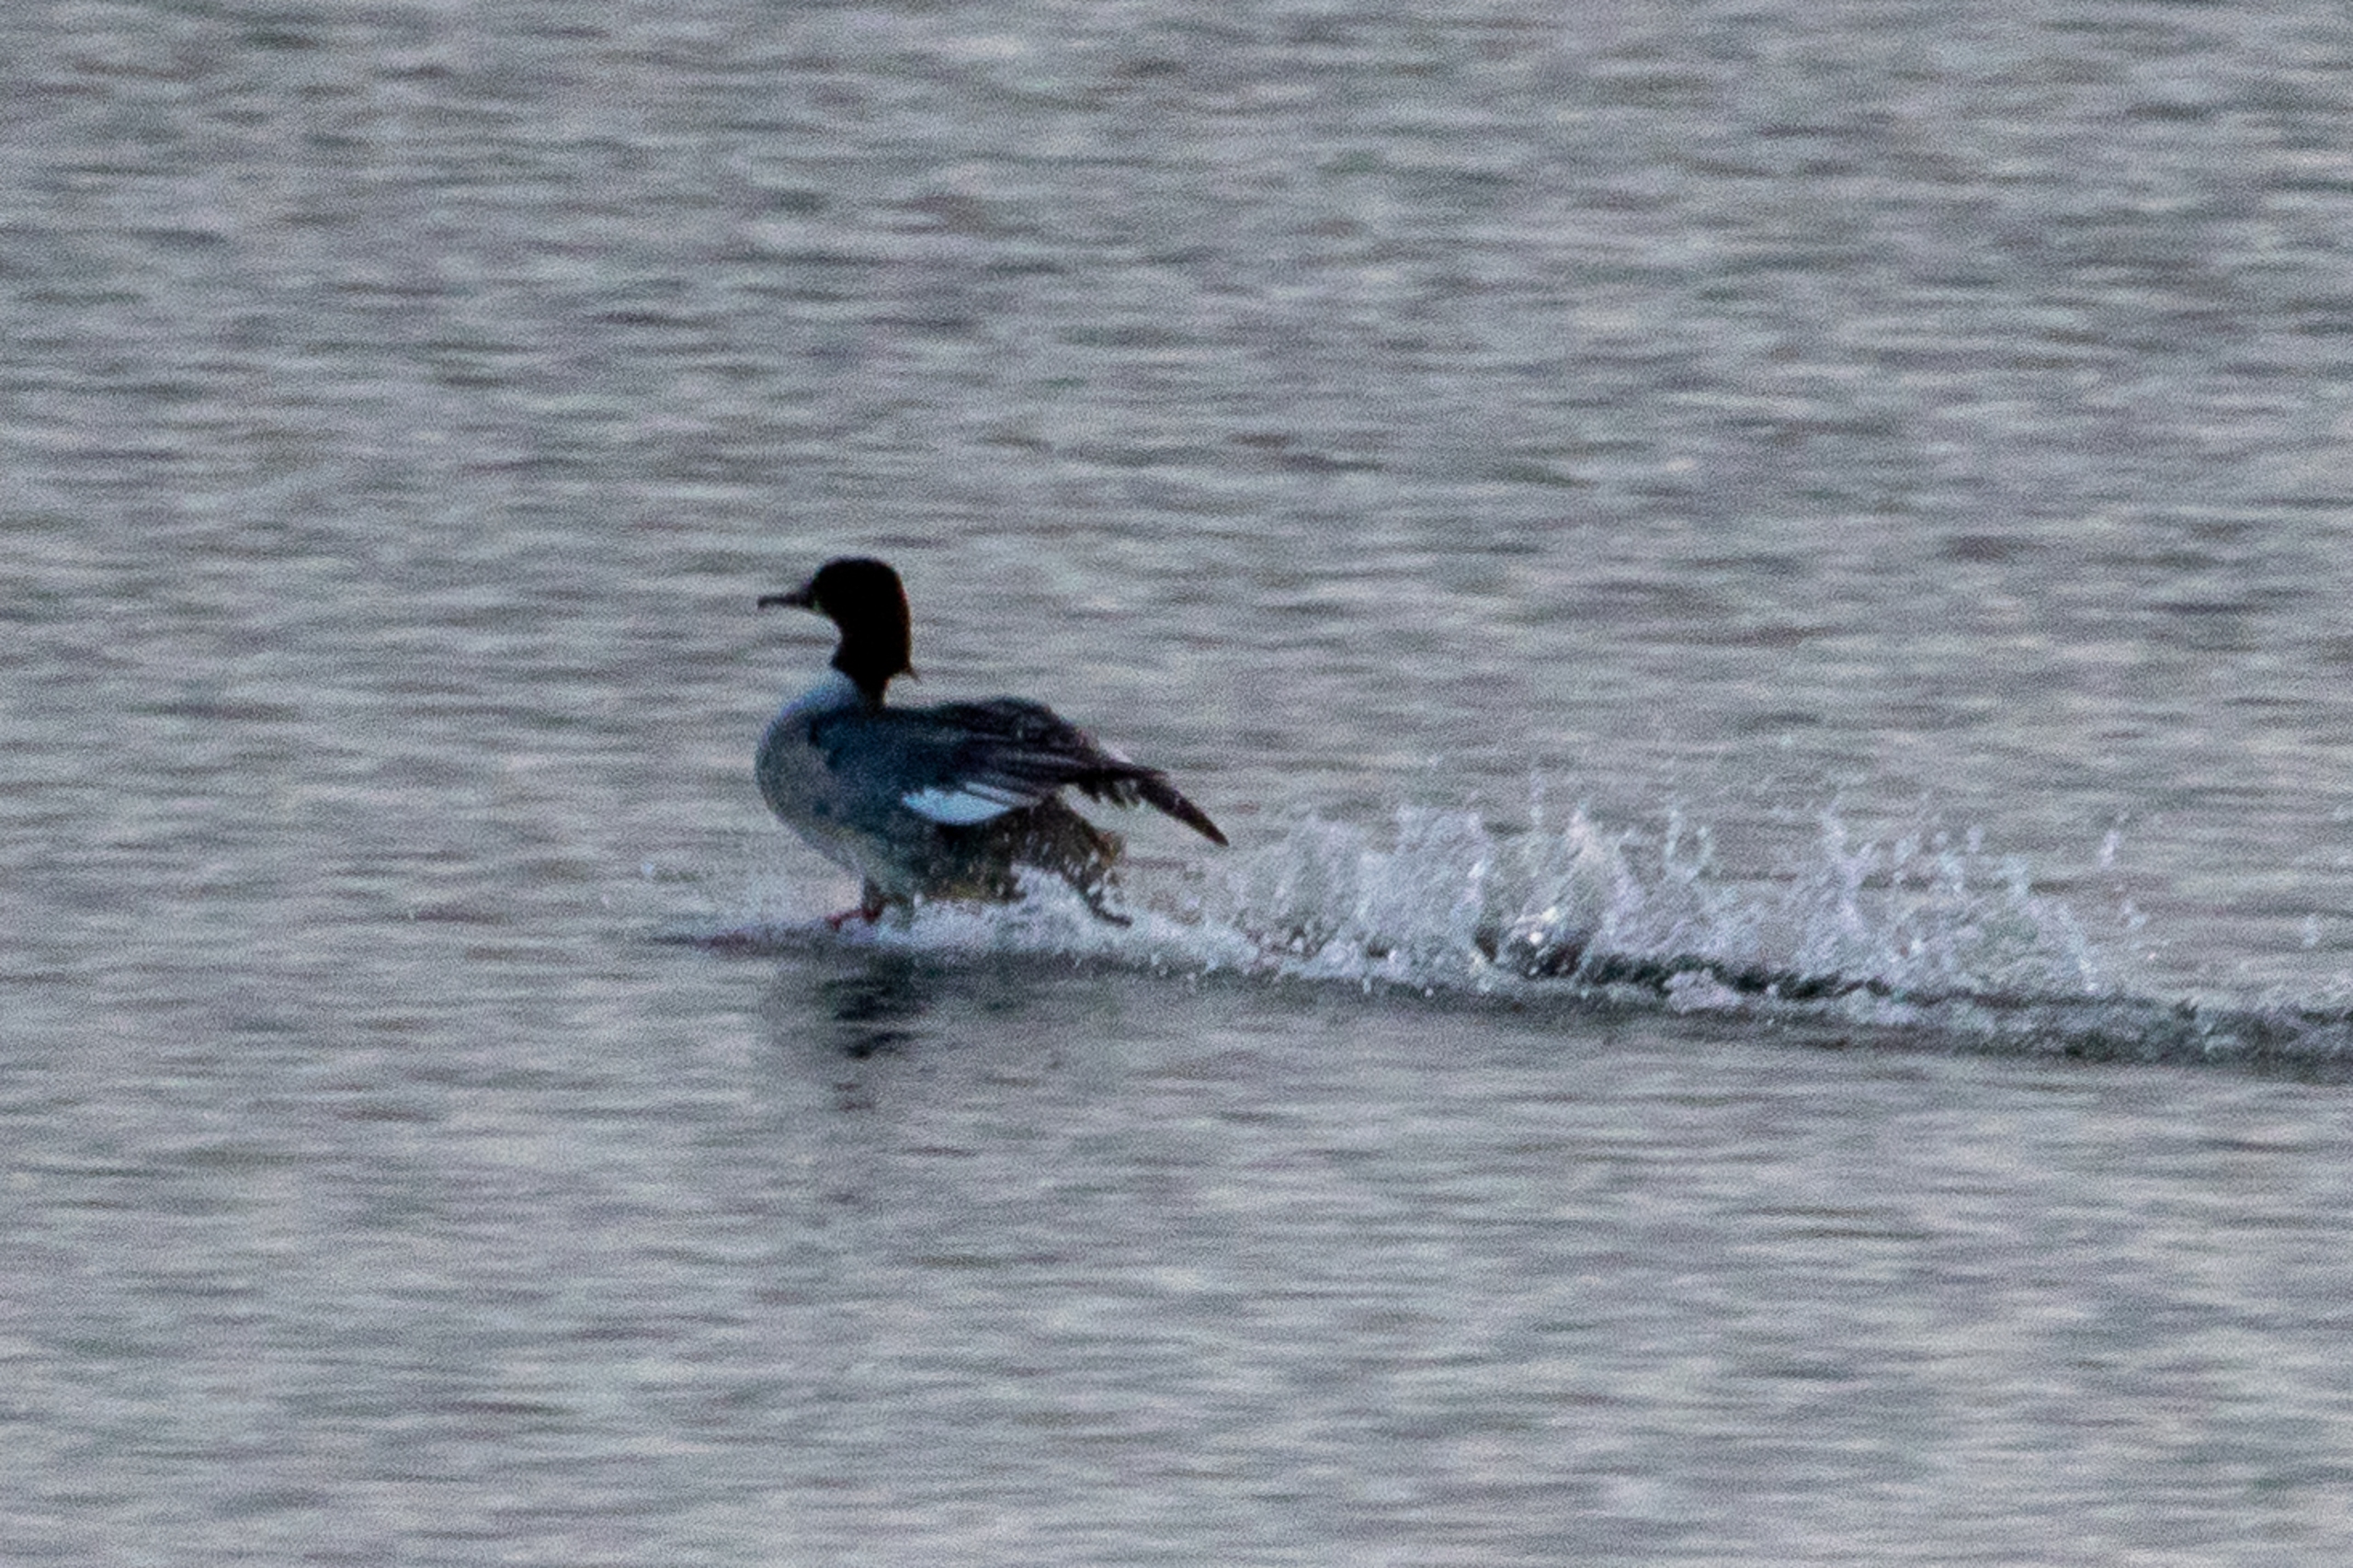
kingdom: Animalia
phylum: Chordata
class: Aves
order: Anseriformes
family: Anatidae
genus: Mergus
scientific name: Mergus merganser
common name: Stor skallesluger
